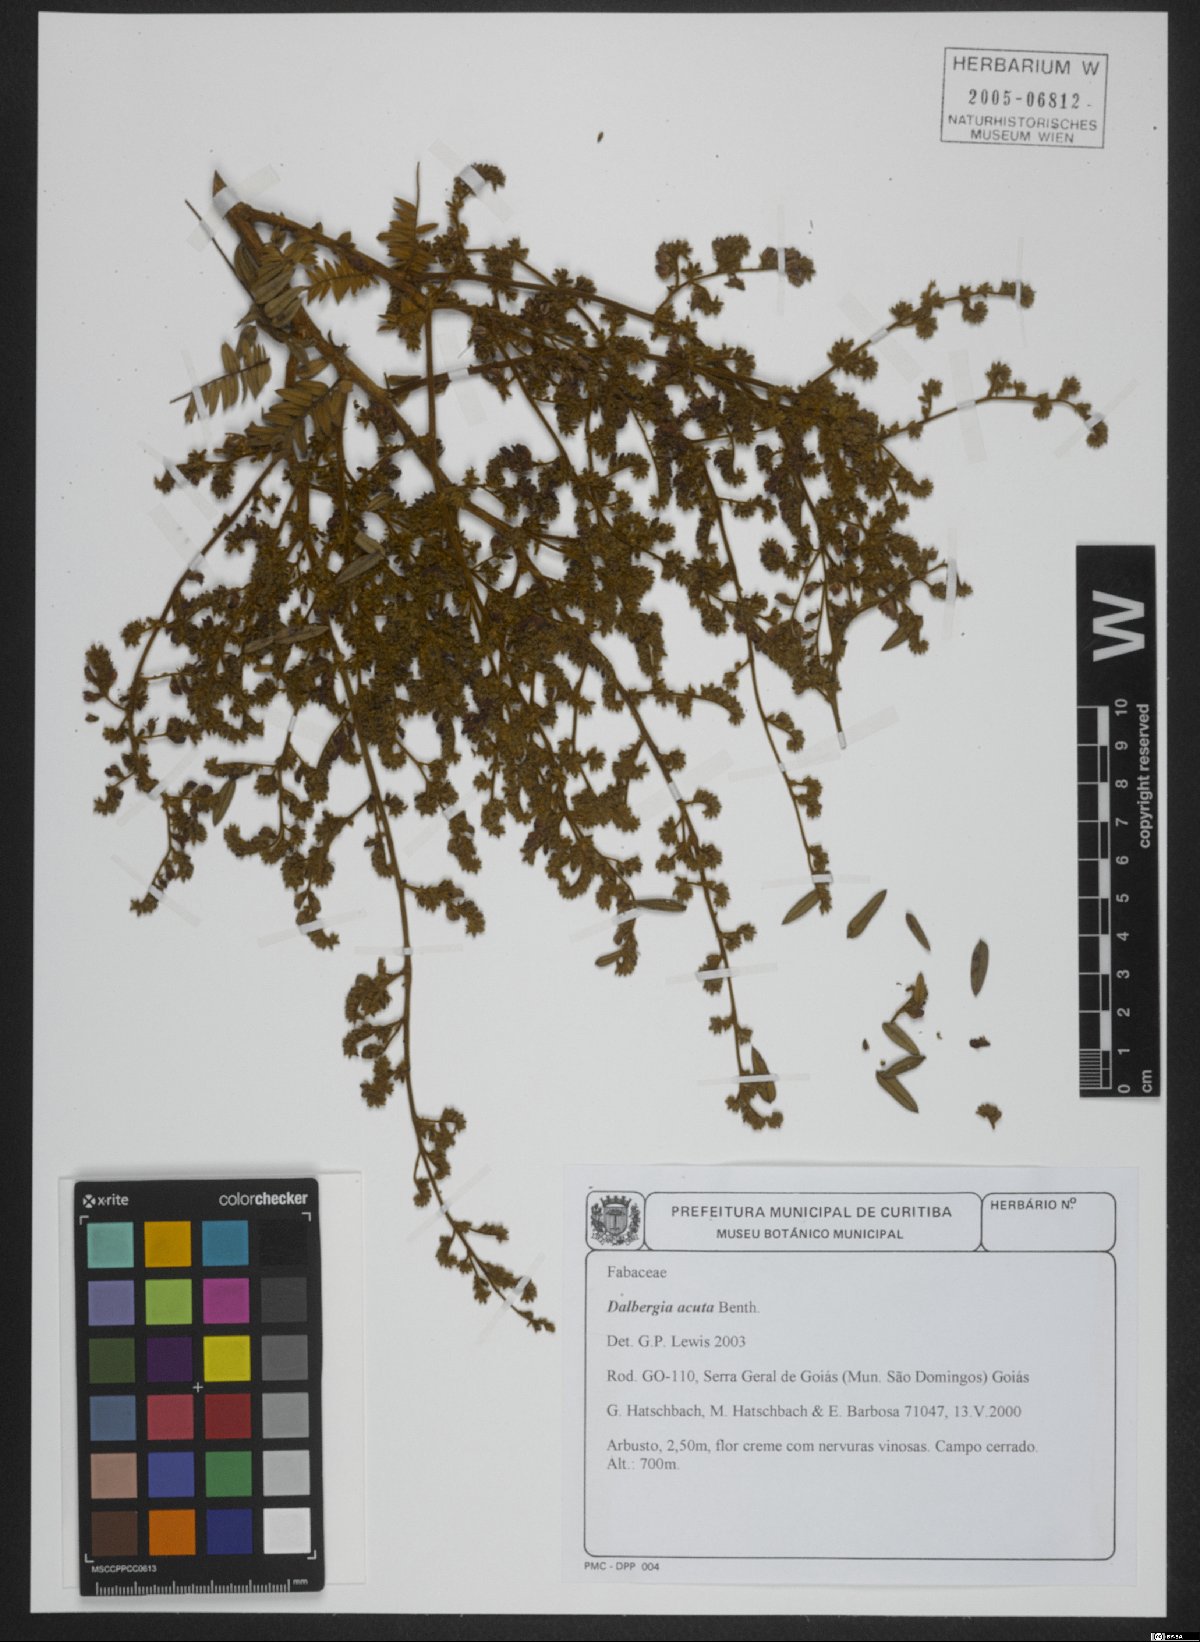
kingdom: Plantae
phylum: Tracheophyta
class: Magnoliopsida
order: Fabales
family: Fabaceae
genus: Dalbergia
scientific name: Dalbergia acuta
